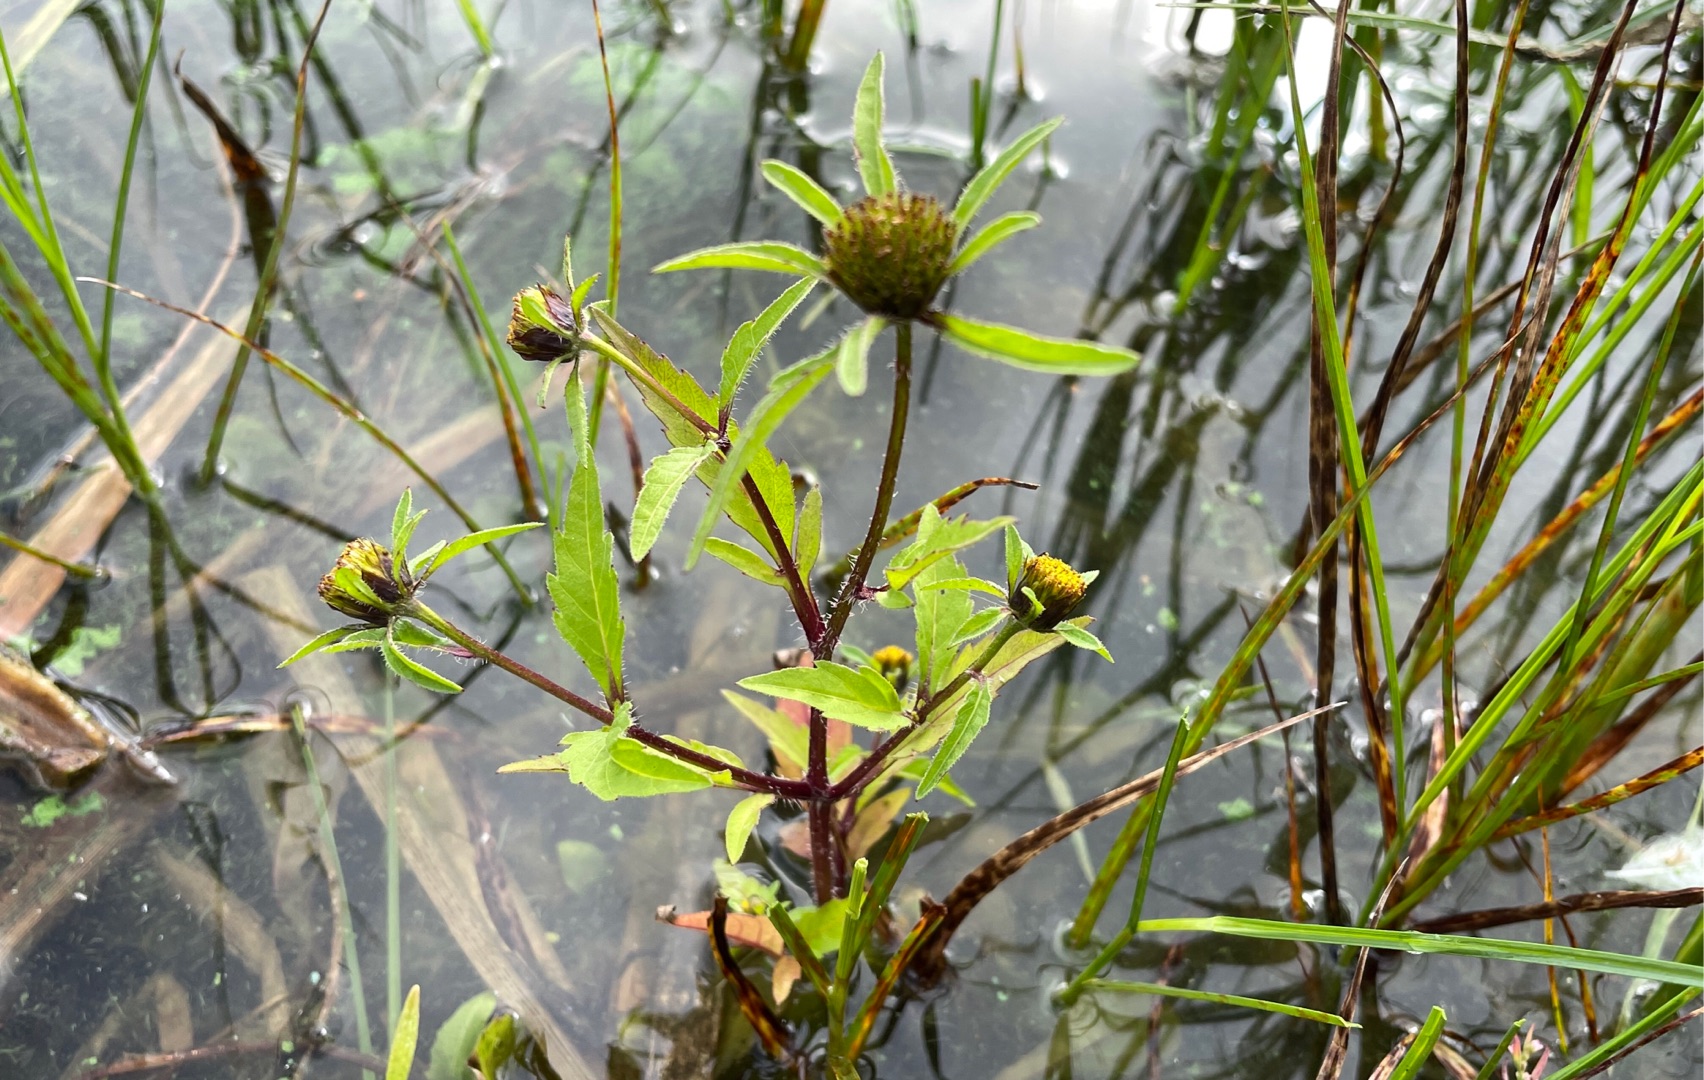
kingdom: Plantae
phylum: Tracheophyta
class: Magnoliopsida
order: Asterales
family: Asteraceae
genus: Bidens
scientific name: Bidens tripartita
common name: Fliget brøndsel
